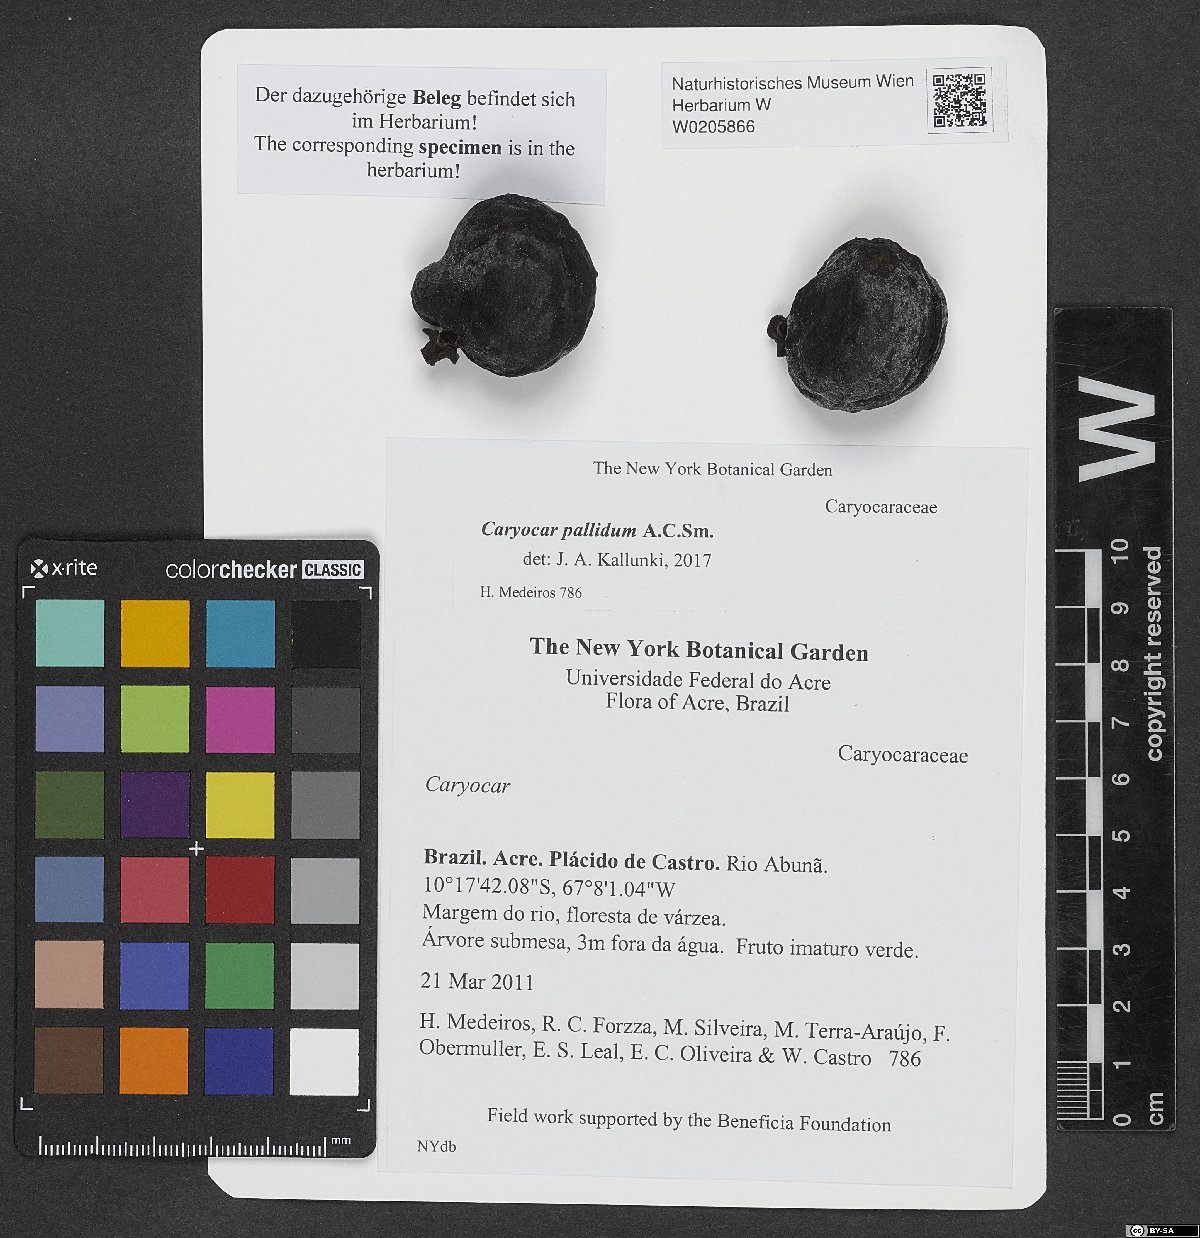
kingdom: Plantae
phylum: Tracheophyta
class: Magnoliopsida
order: Malpighiales
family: Caryocaraceae
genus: Caryocar
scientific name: Caryocar pallidum
